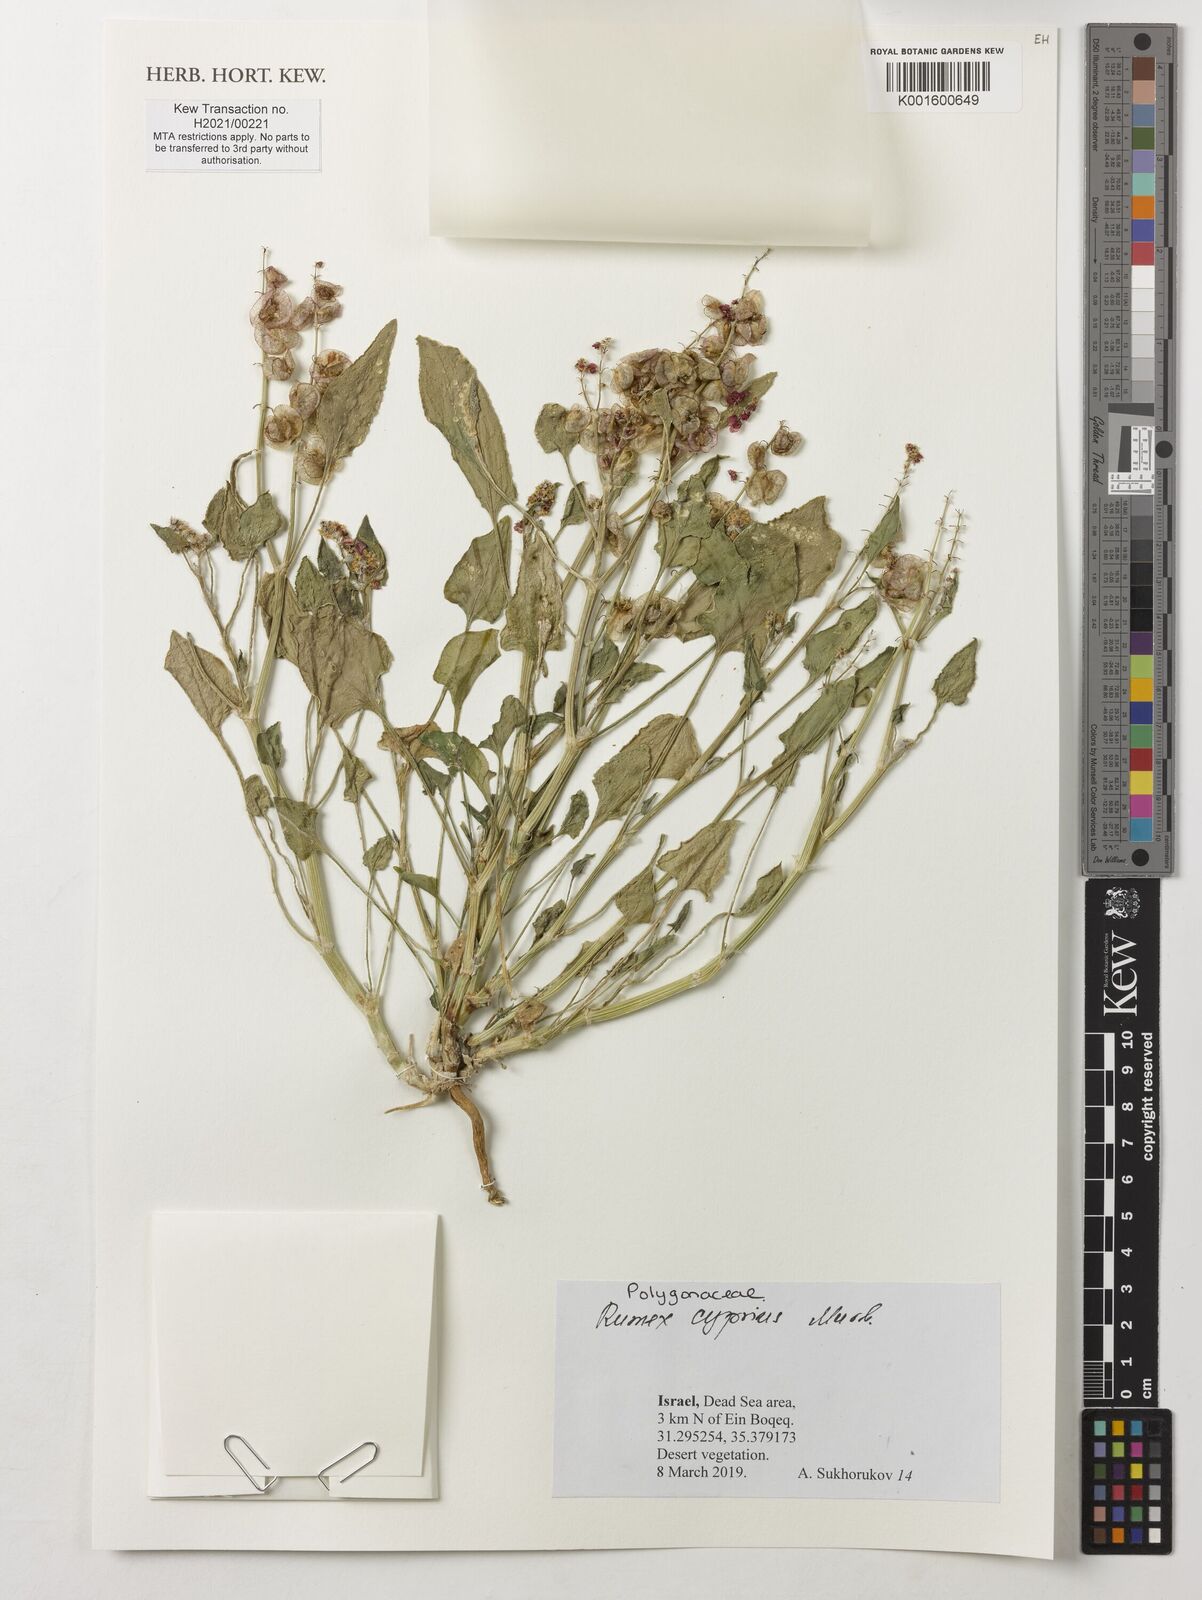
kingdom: Plantae
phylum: Tracheophyta
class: Magnoliopsida
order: Caryophyllales
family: Polygonaceae
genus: Rumex
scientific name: Rumex cyprius
